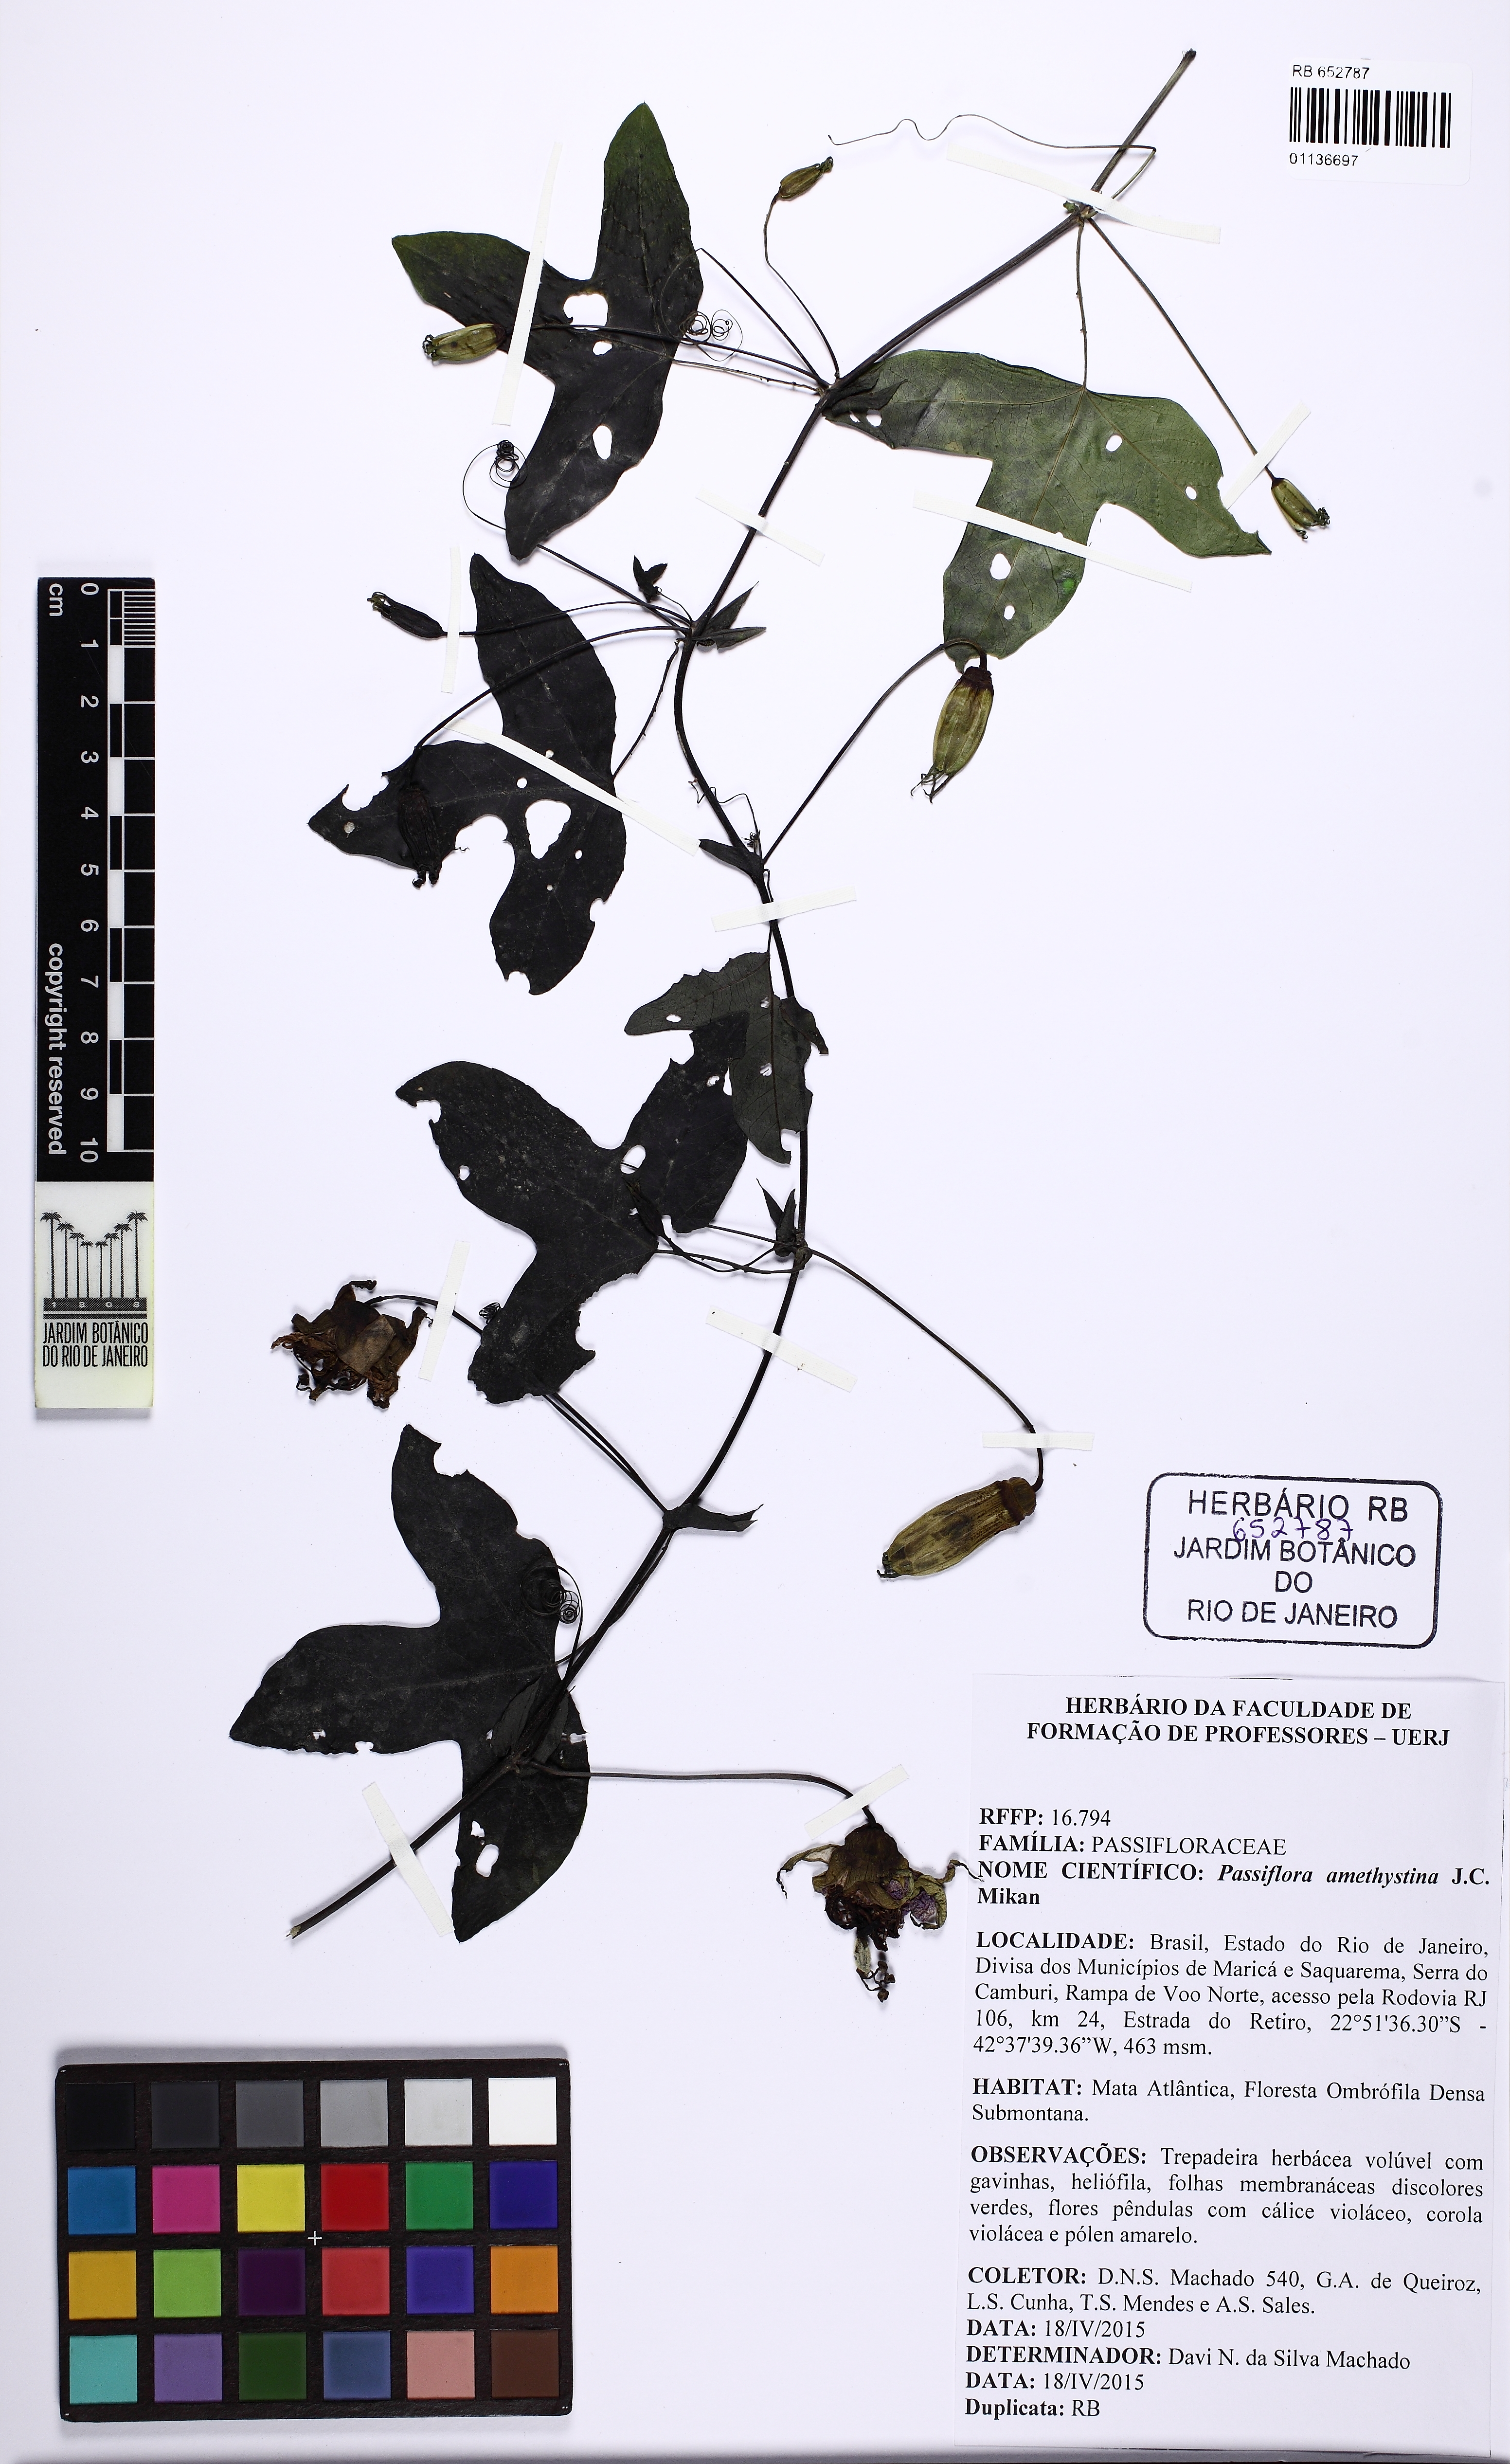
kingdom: Plantae
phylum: Tracheophyta
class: Magnoliopsida
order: Malpighiales
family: Passifloraceae
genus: Passiflora
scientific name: Passiflora amethystina
